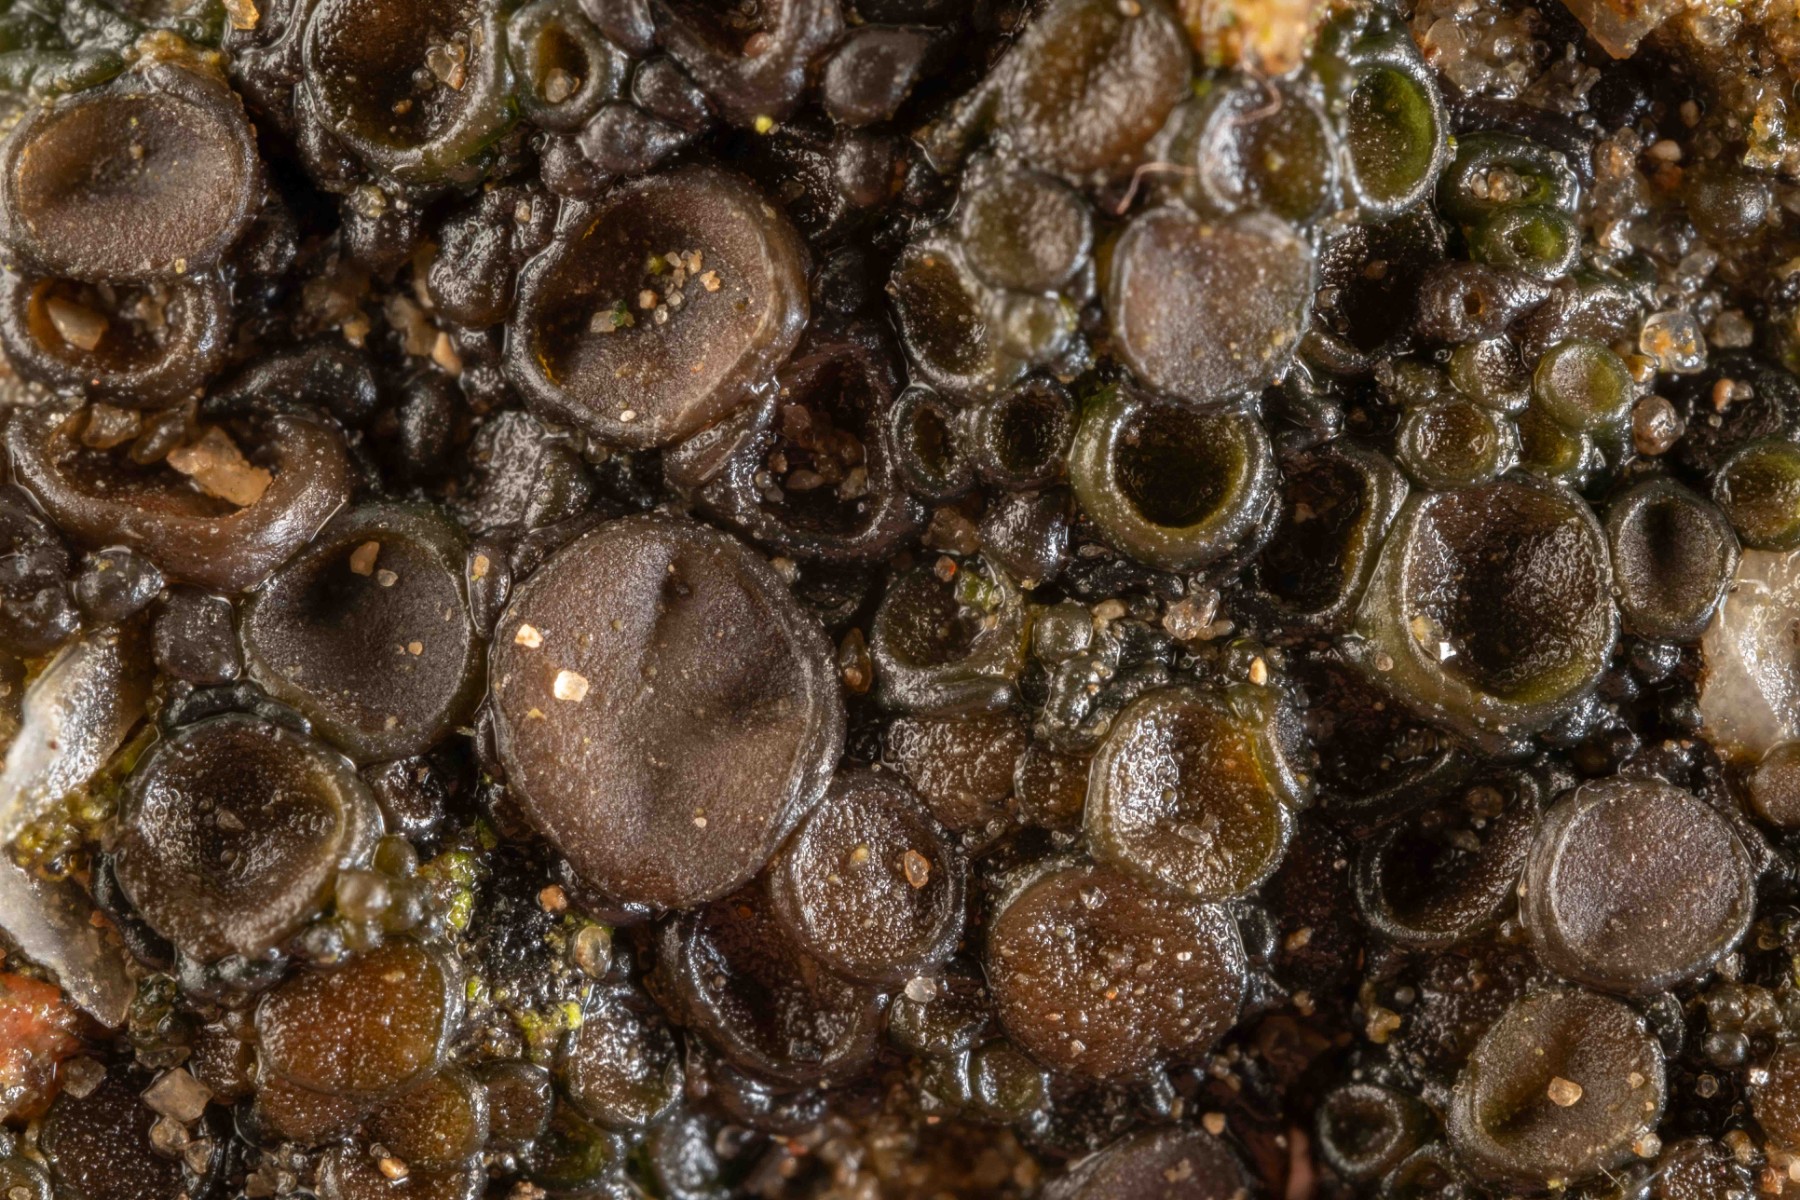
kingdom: Fungi
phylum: Ascomycota
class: Lecanoromycetes
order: Peltigerales
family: Collemataceae
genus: Enchylium
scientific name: Enchylium limosum
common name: dynd-bævrelav
